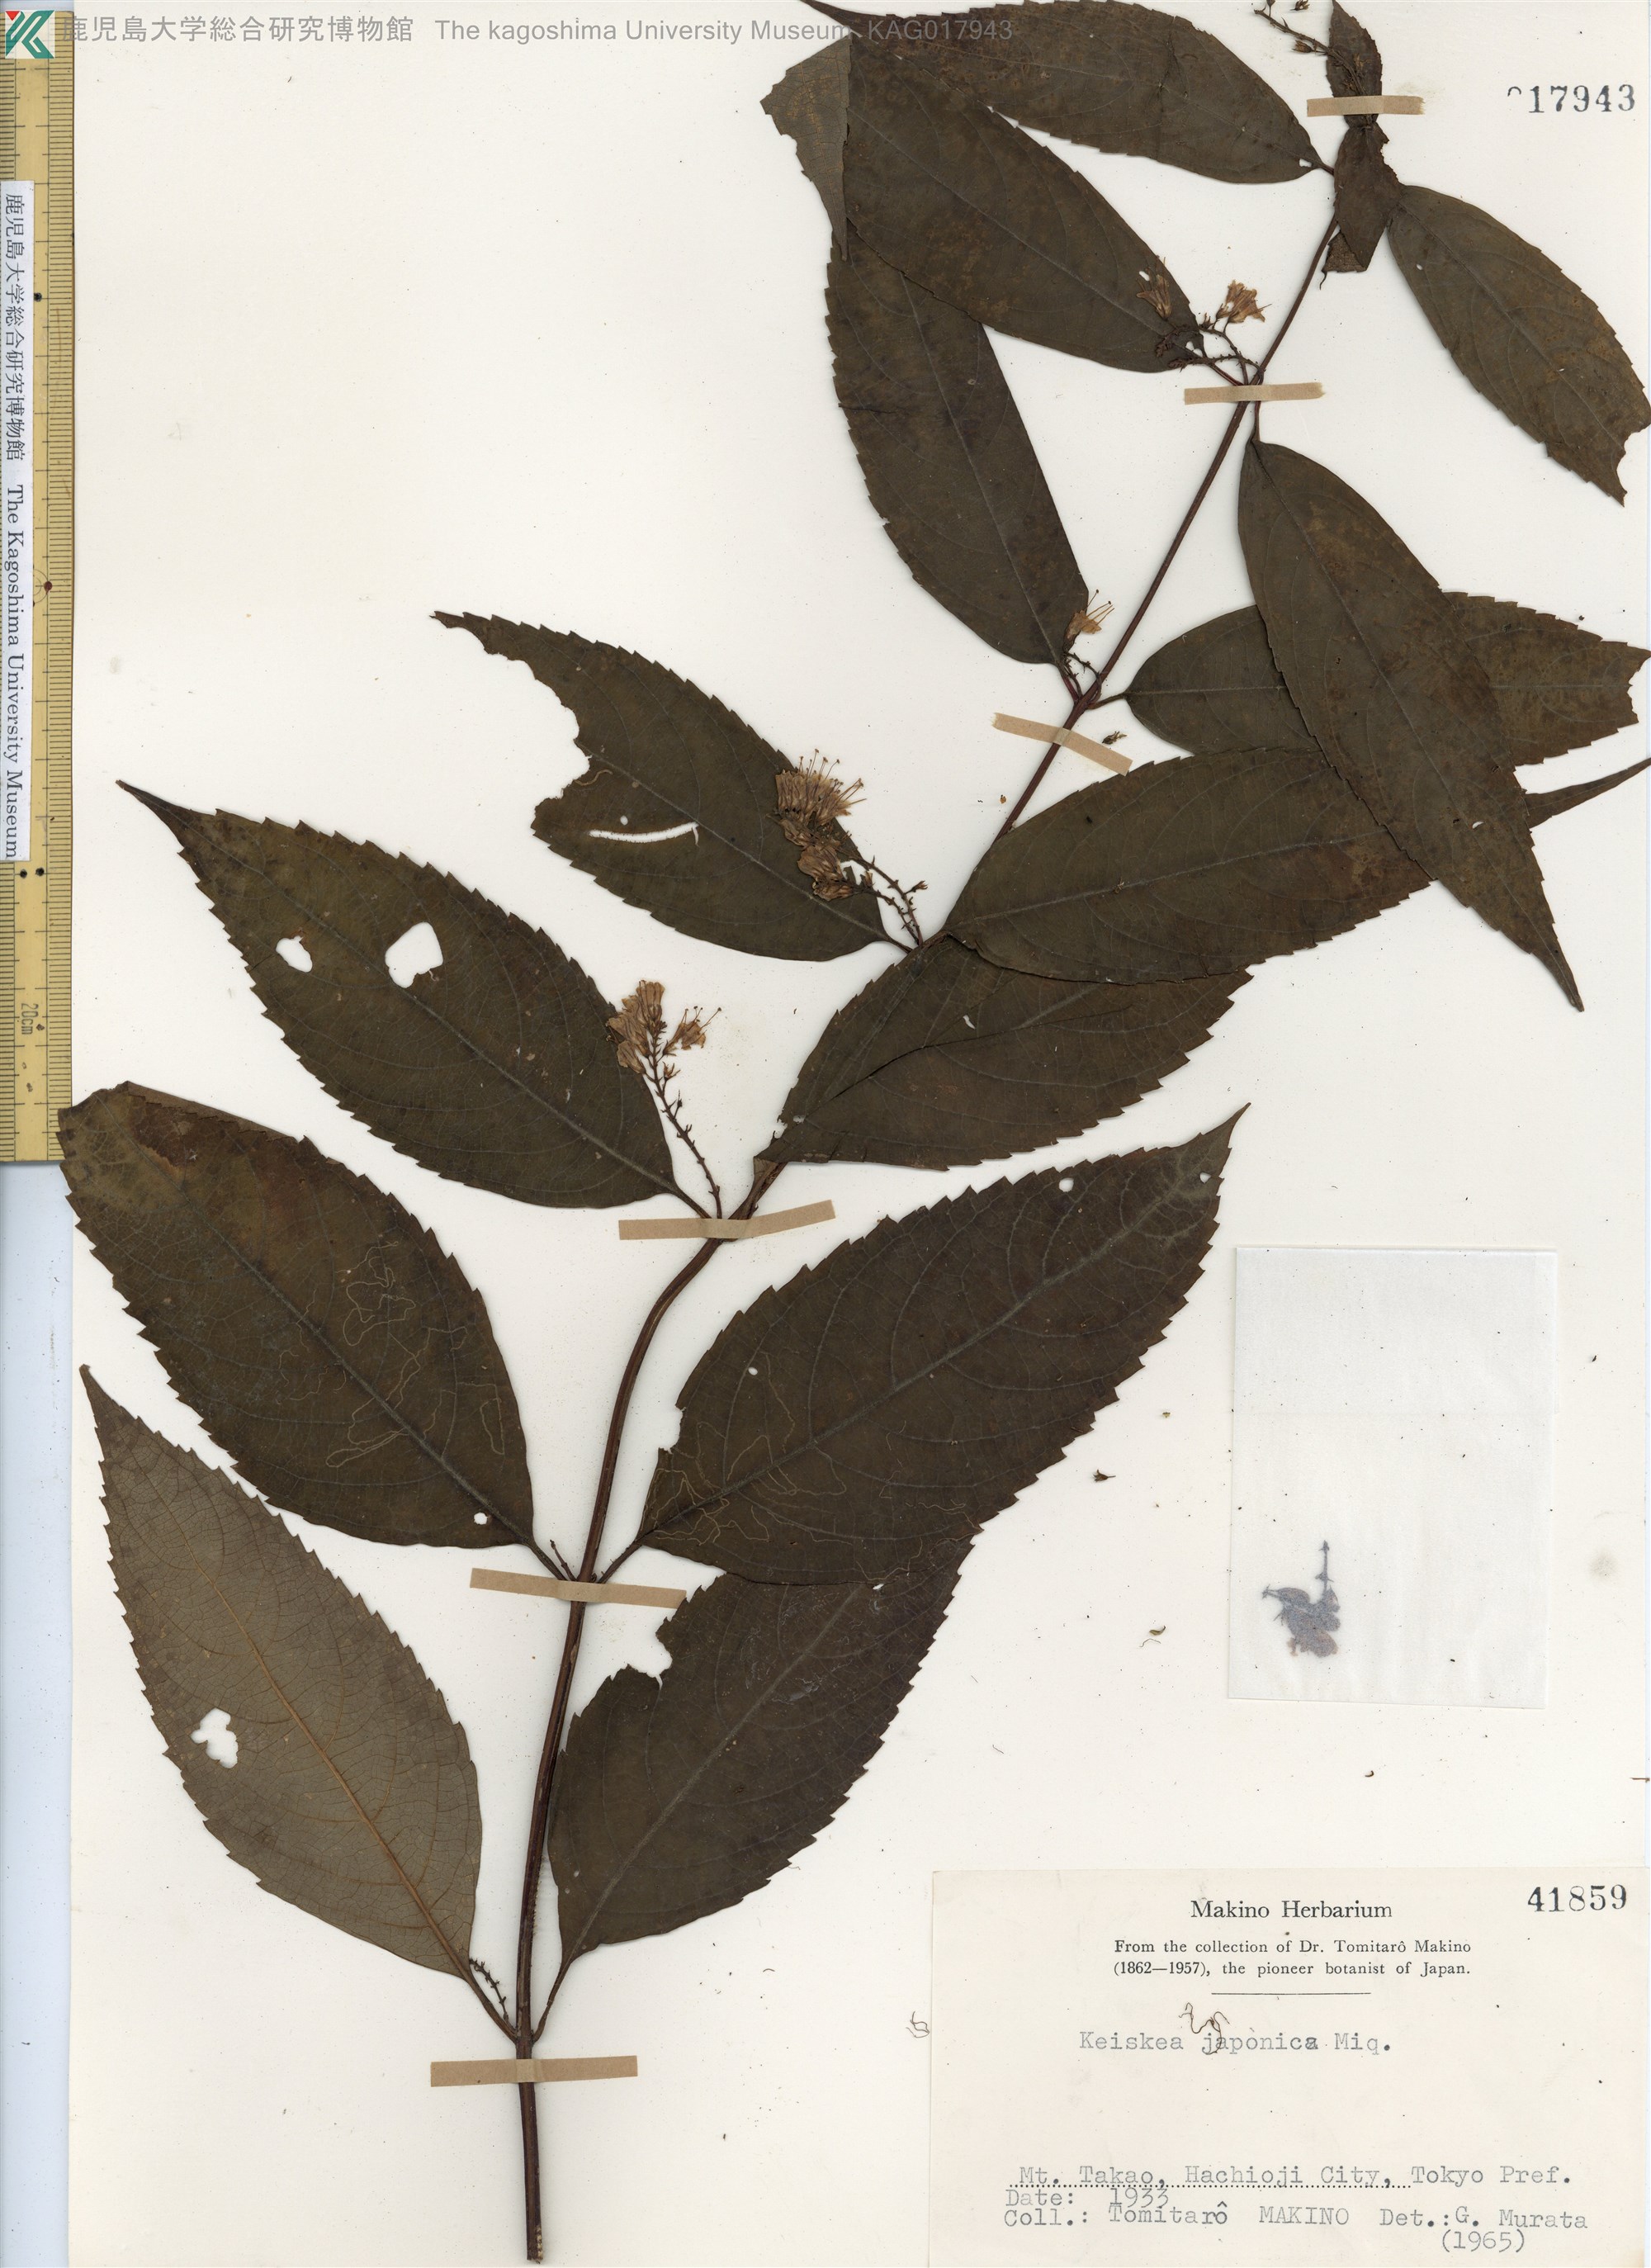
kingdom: Plantae
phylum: Tracheophyta
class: Magnoliopsida
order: Lamiales
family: Lamiaceae
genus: Collinsonia
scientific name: Collinsonia japonica
